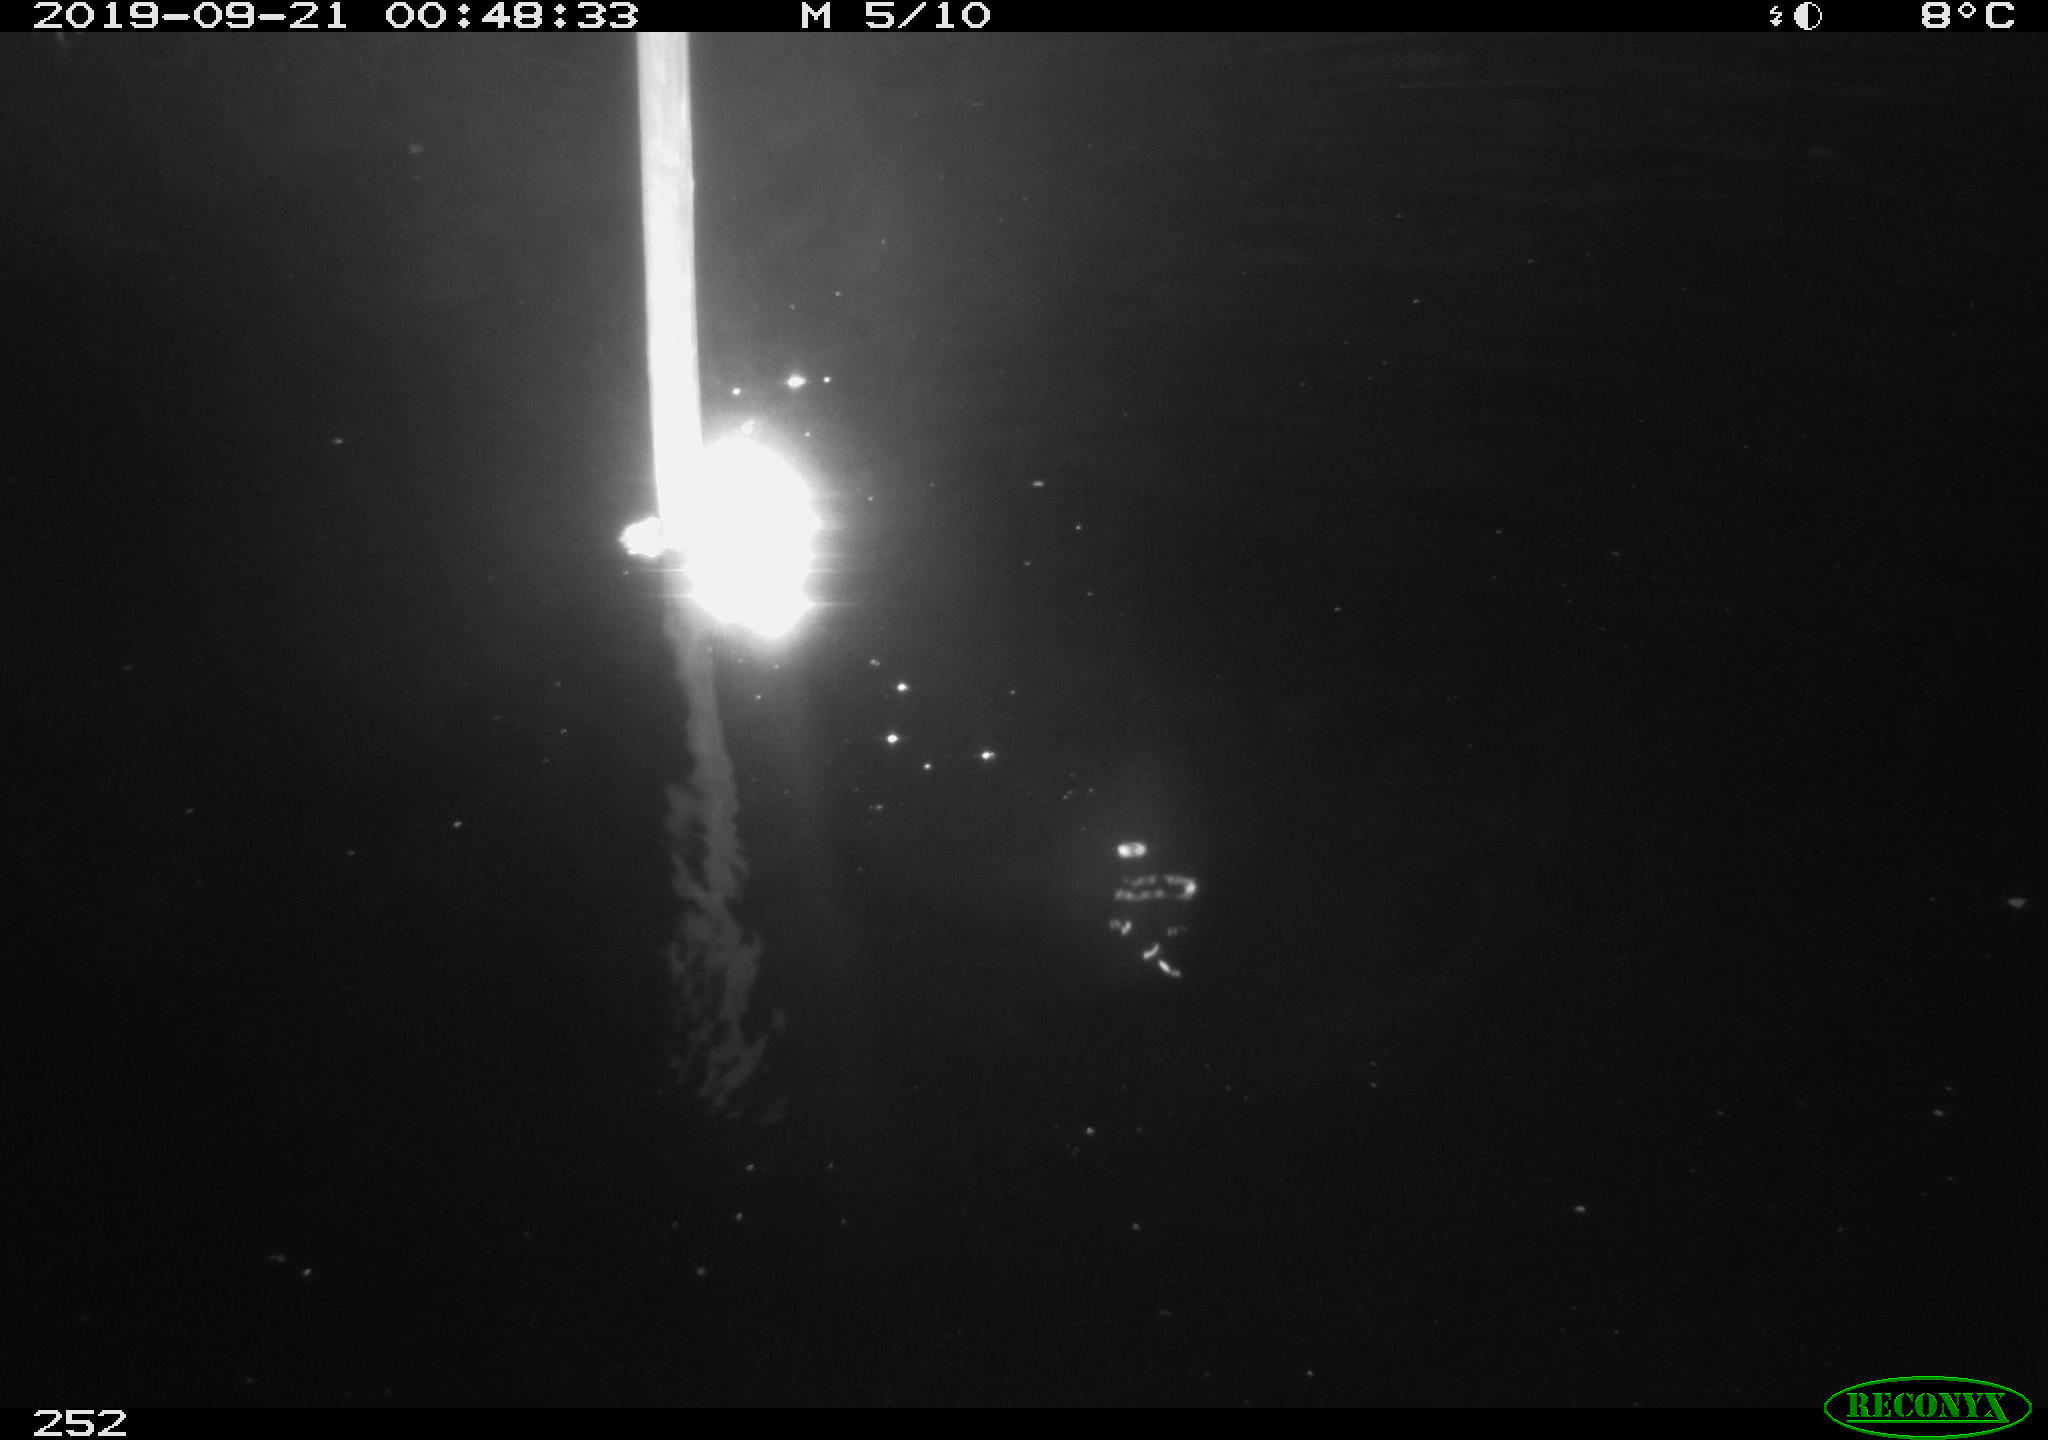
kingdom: Animalia
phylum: Chordata
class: Aves
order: Anseriformes
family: Anatidae
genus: Anas
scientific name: Anas platyrhynchos
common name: Mallard
